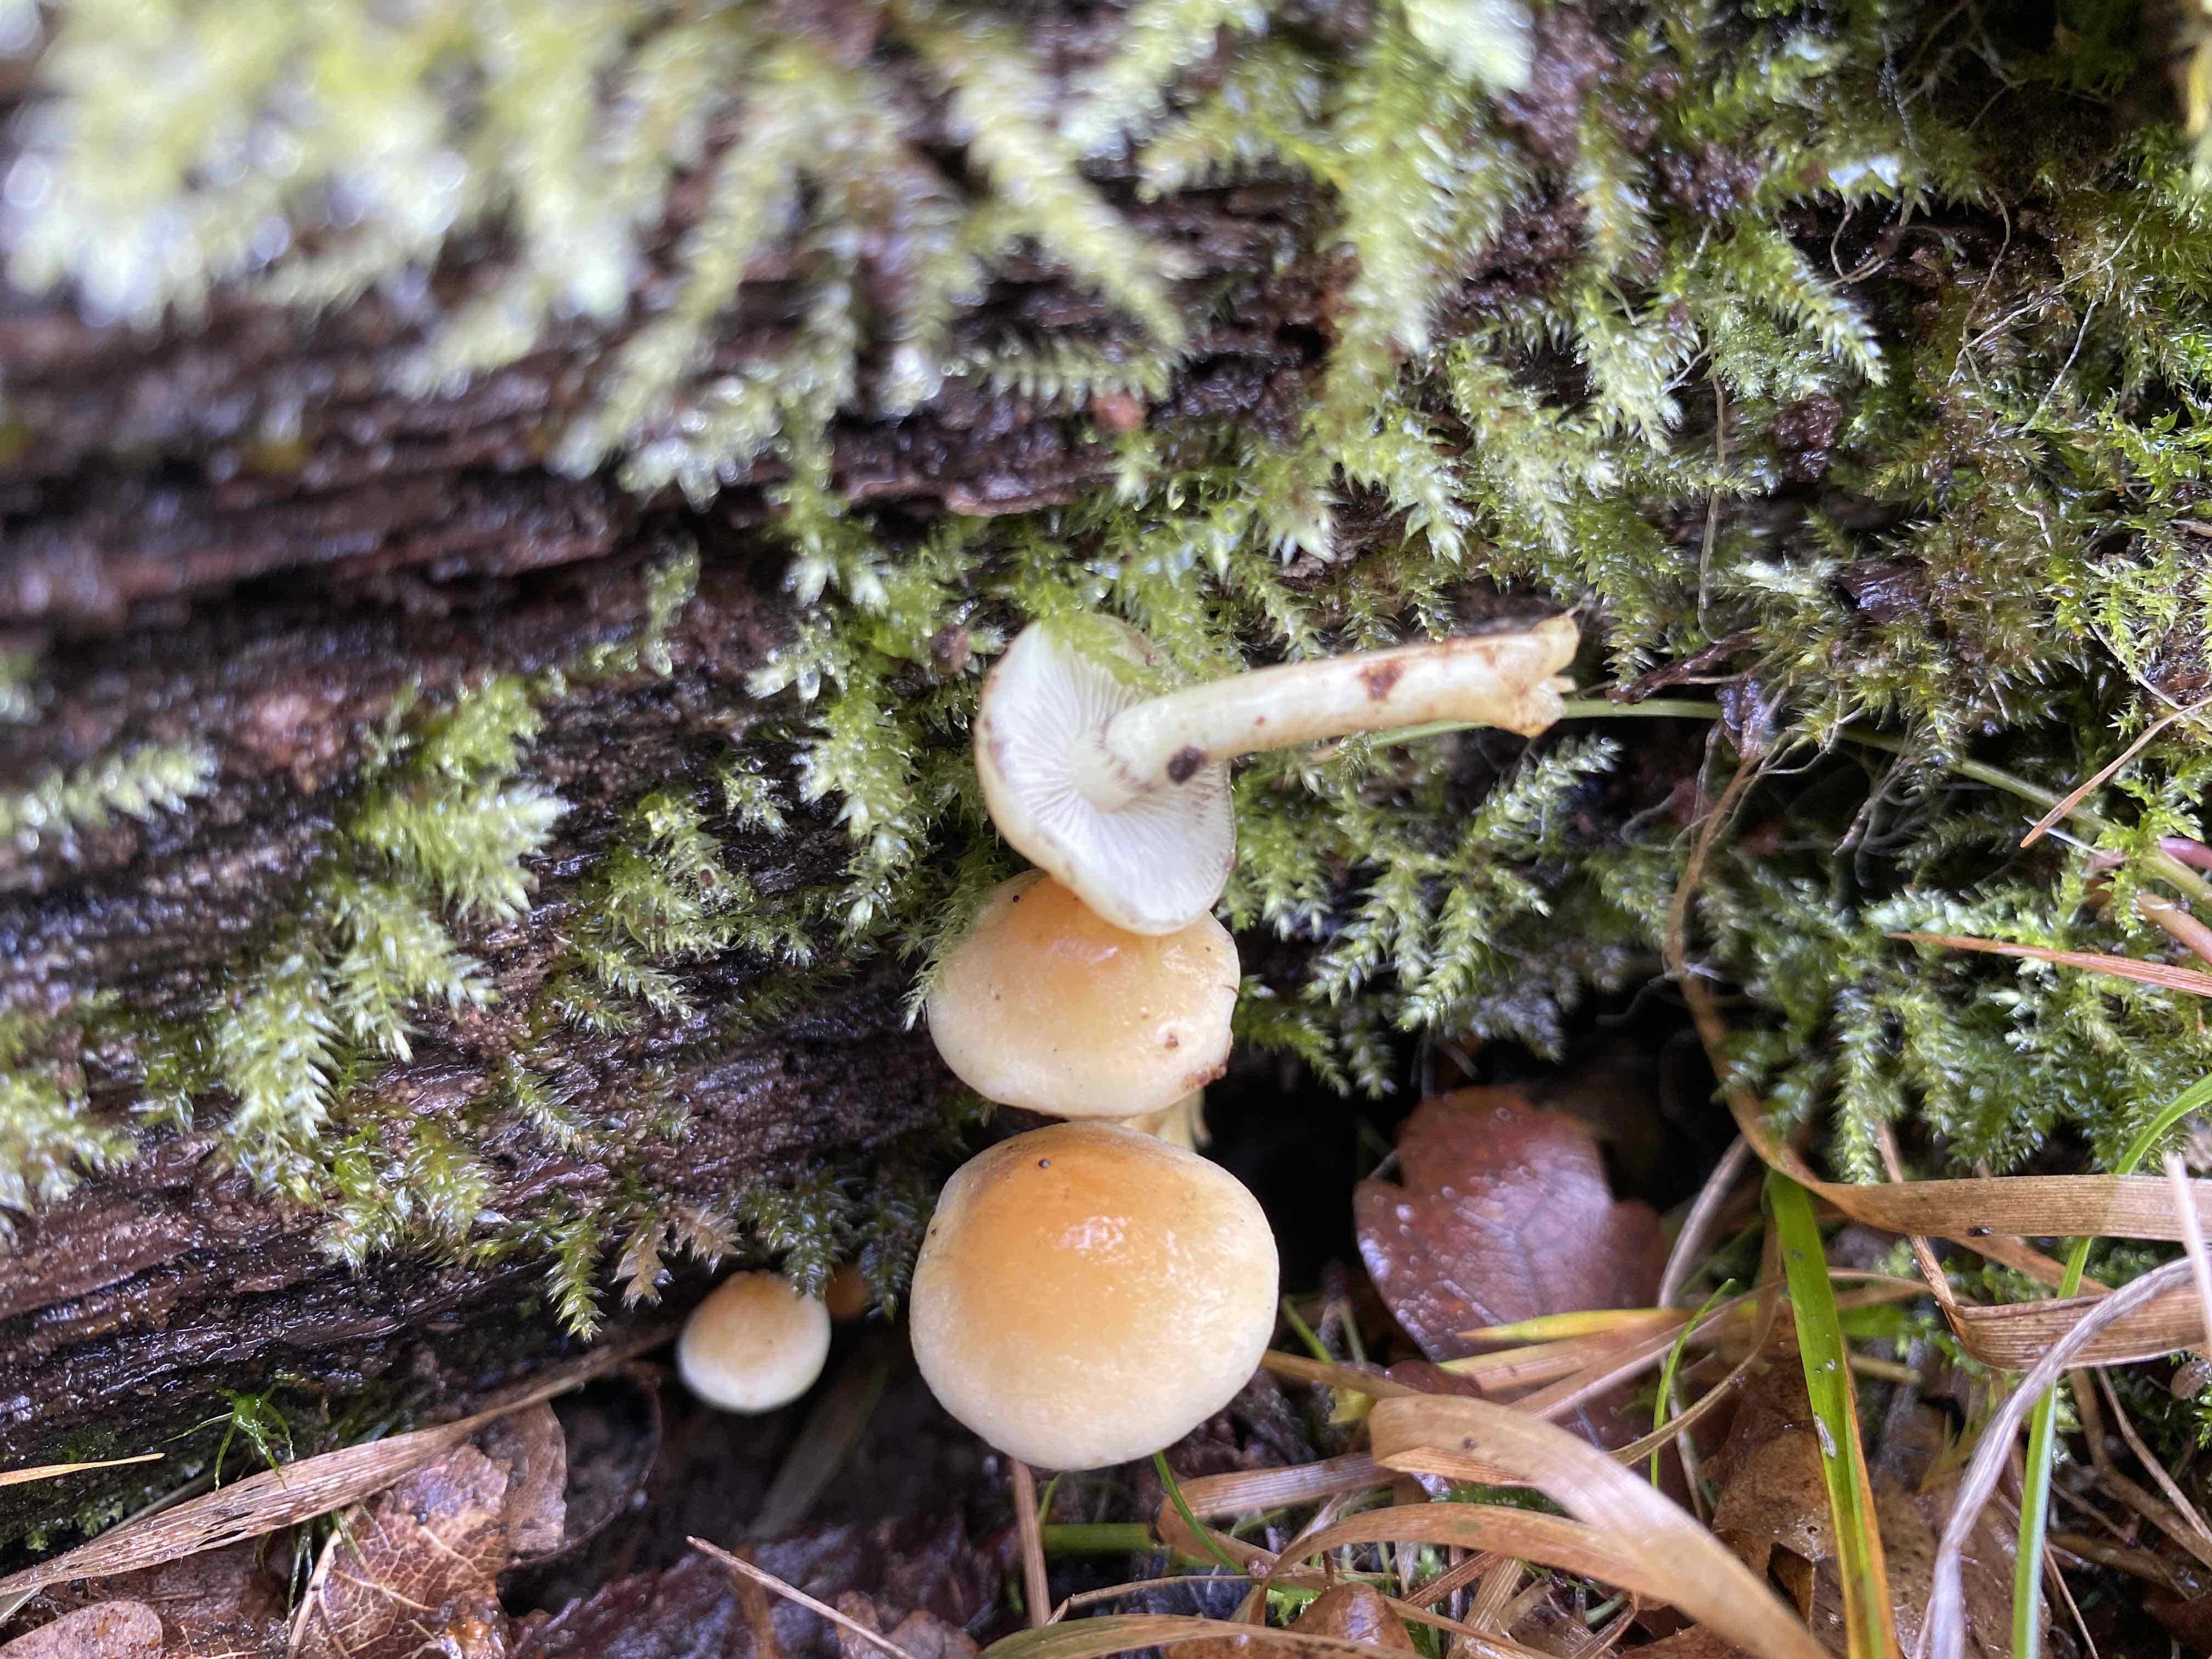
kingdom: Fungi
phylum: Basidiomycota
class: Agaricomycetes
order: Agaricales
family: Strophariaceae
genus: Hypholoma
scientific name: Hypholoma fasciculare
